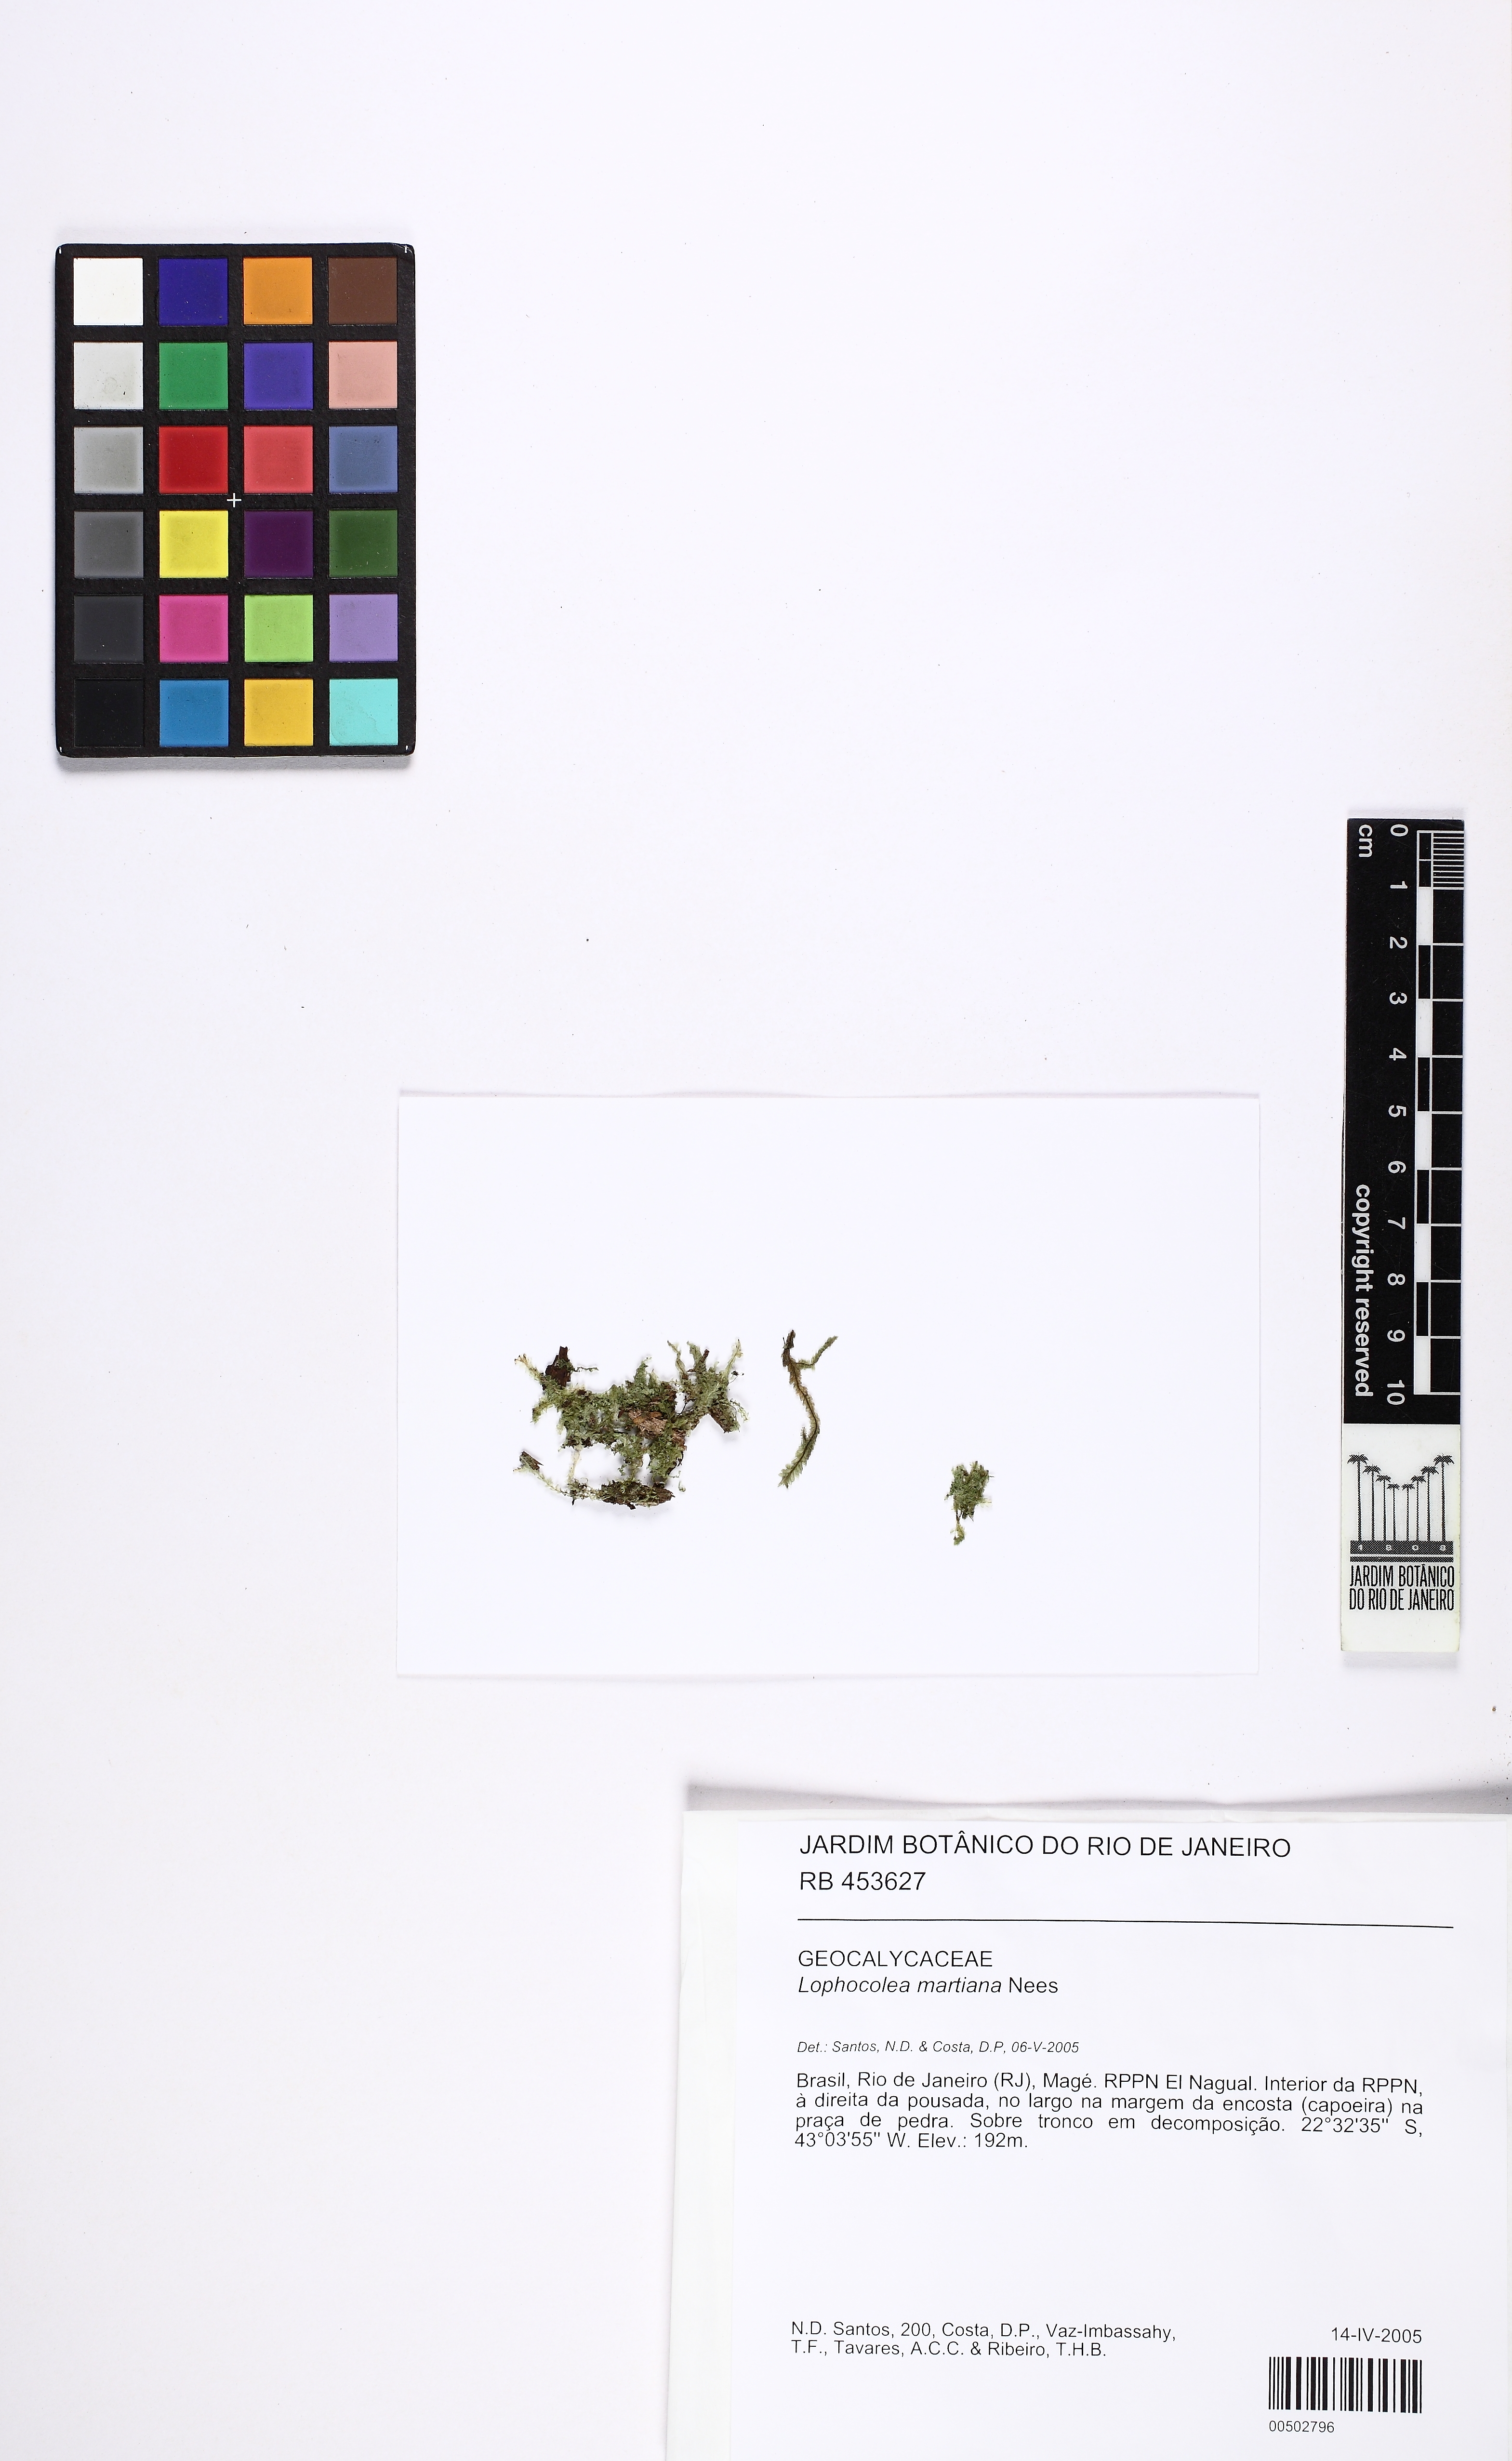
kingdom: Plantae
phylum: Marchantiophyta
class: Jungermanniopsida
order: Jungermanniales
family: Lophocoleaceae
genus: Cryptolophocolea
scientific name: Cryptolophocolea martiana
